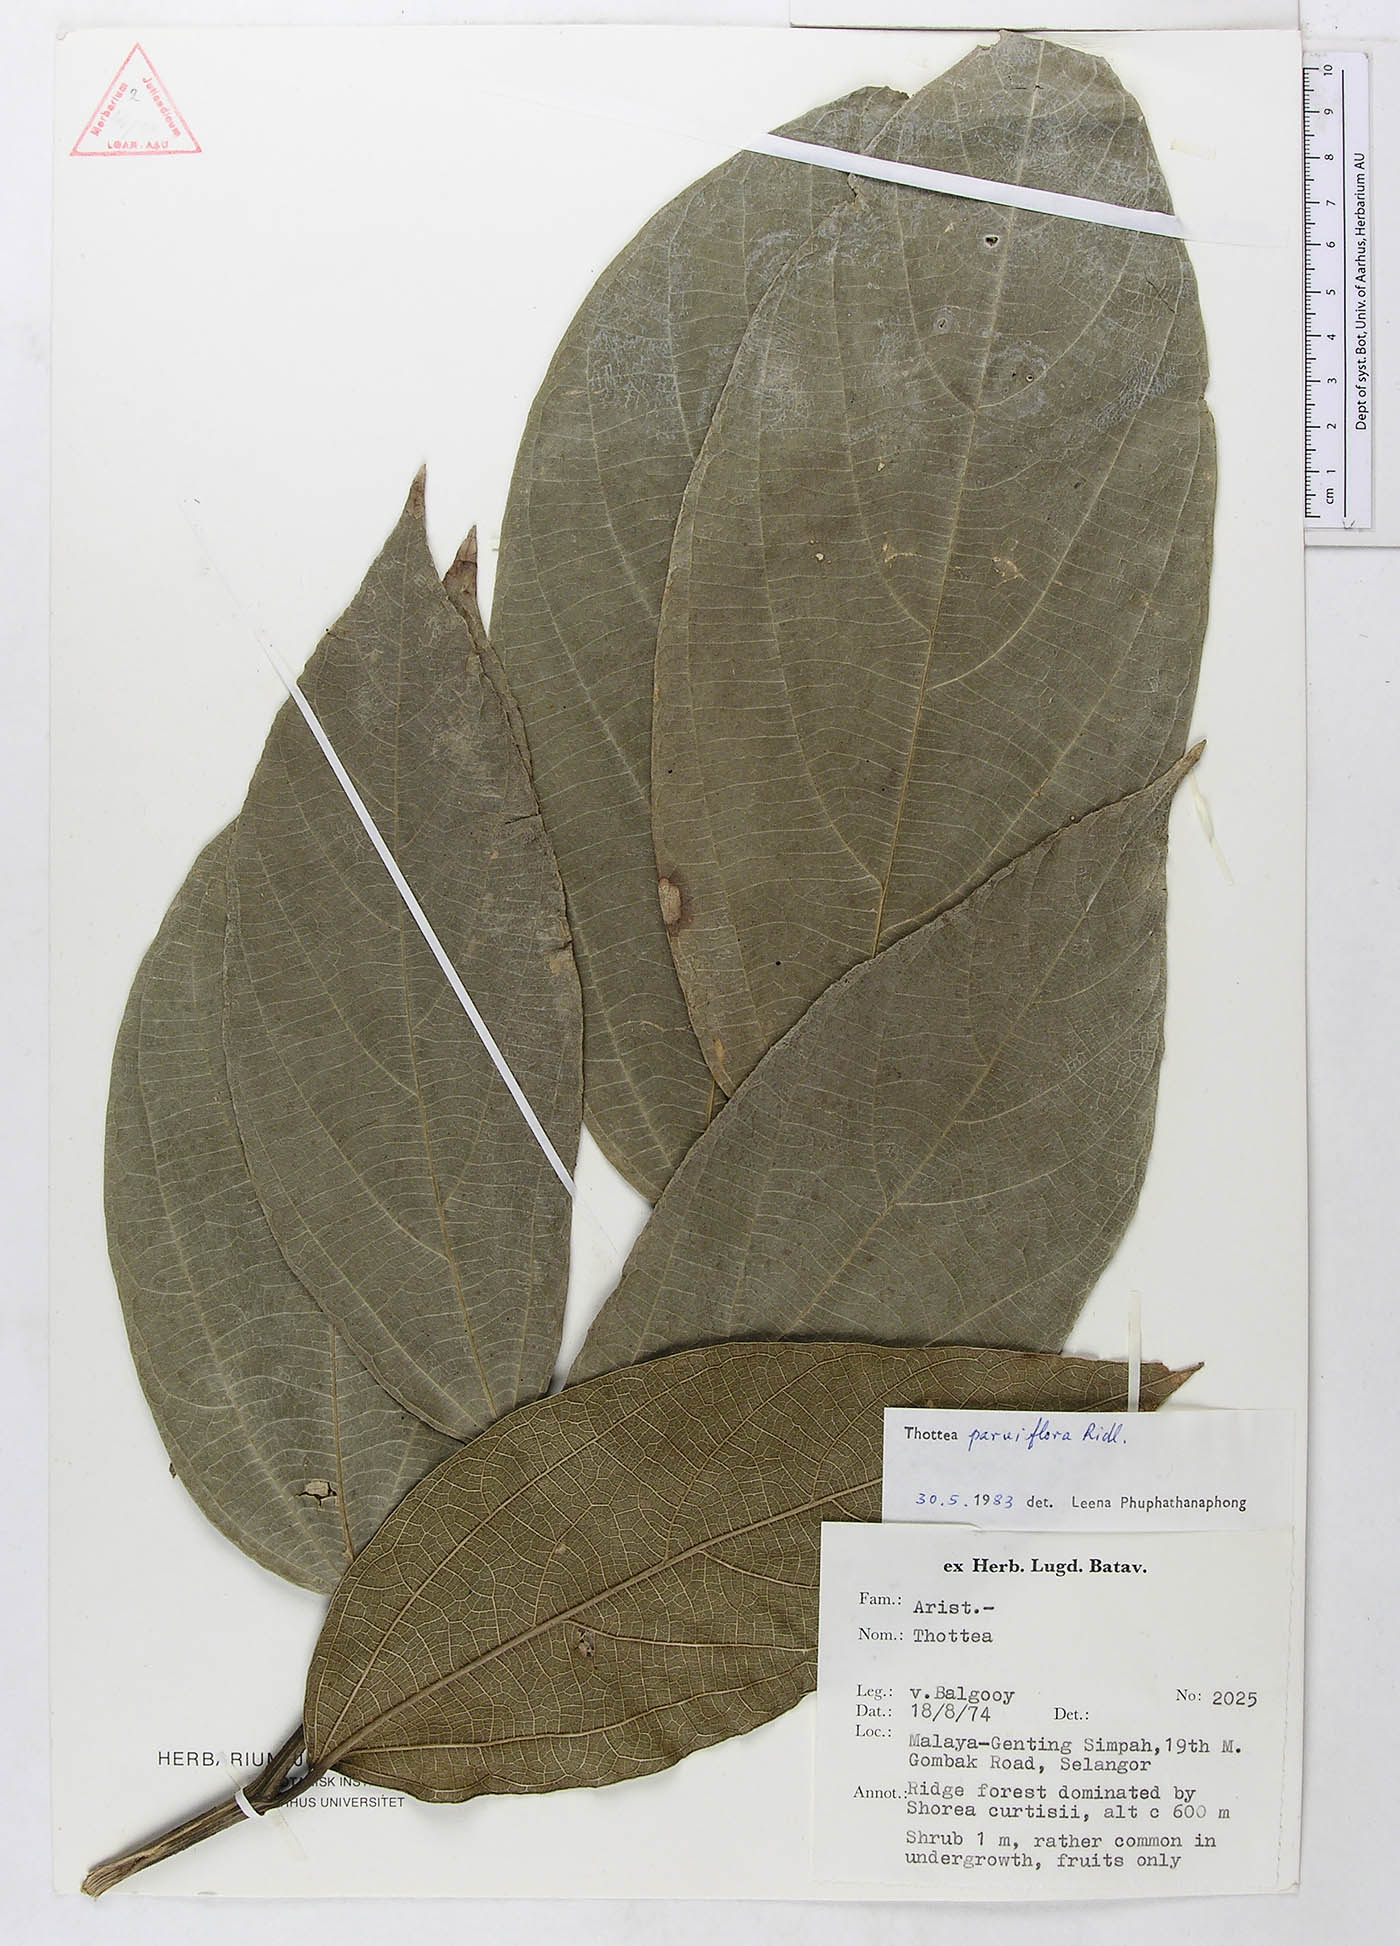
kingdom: Plantae
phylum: Tracheophyta
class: Magnoliopsida
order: Piperales
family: Aristolochiaceae
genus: Thottea
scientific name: Thottea parviflora
